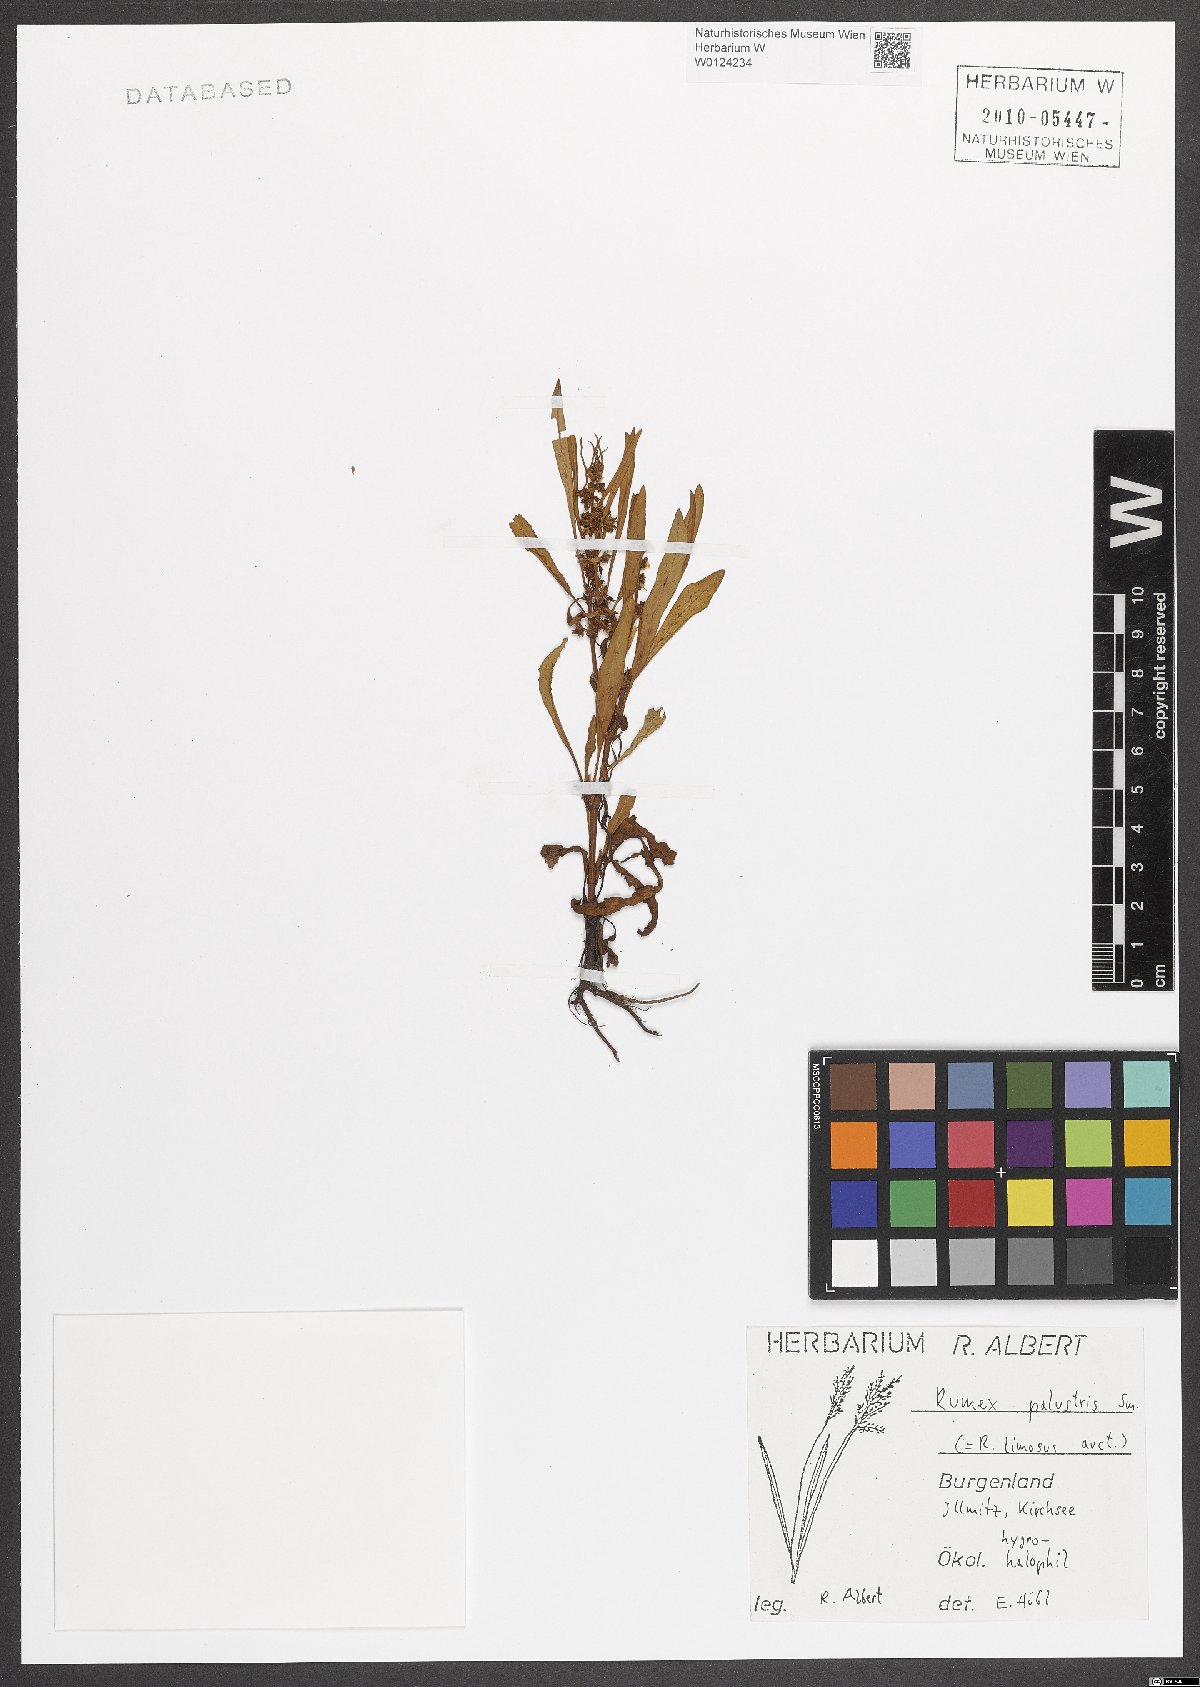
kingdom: Plantae
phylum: Tracheophyta
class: Magnoliopsida
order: Caryophyllales
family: Polygonaceae
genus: Rumex
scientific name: Rumex palustris
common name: Marsh dock
